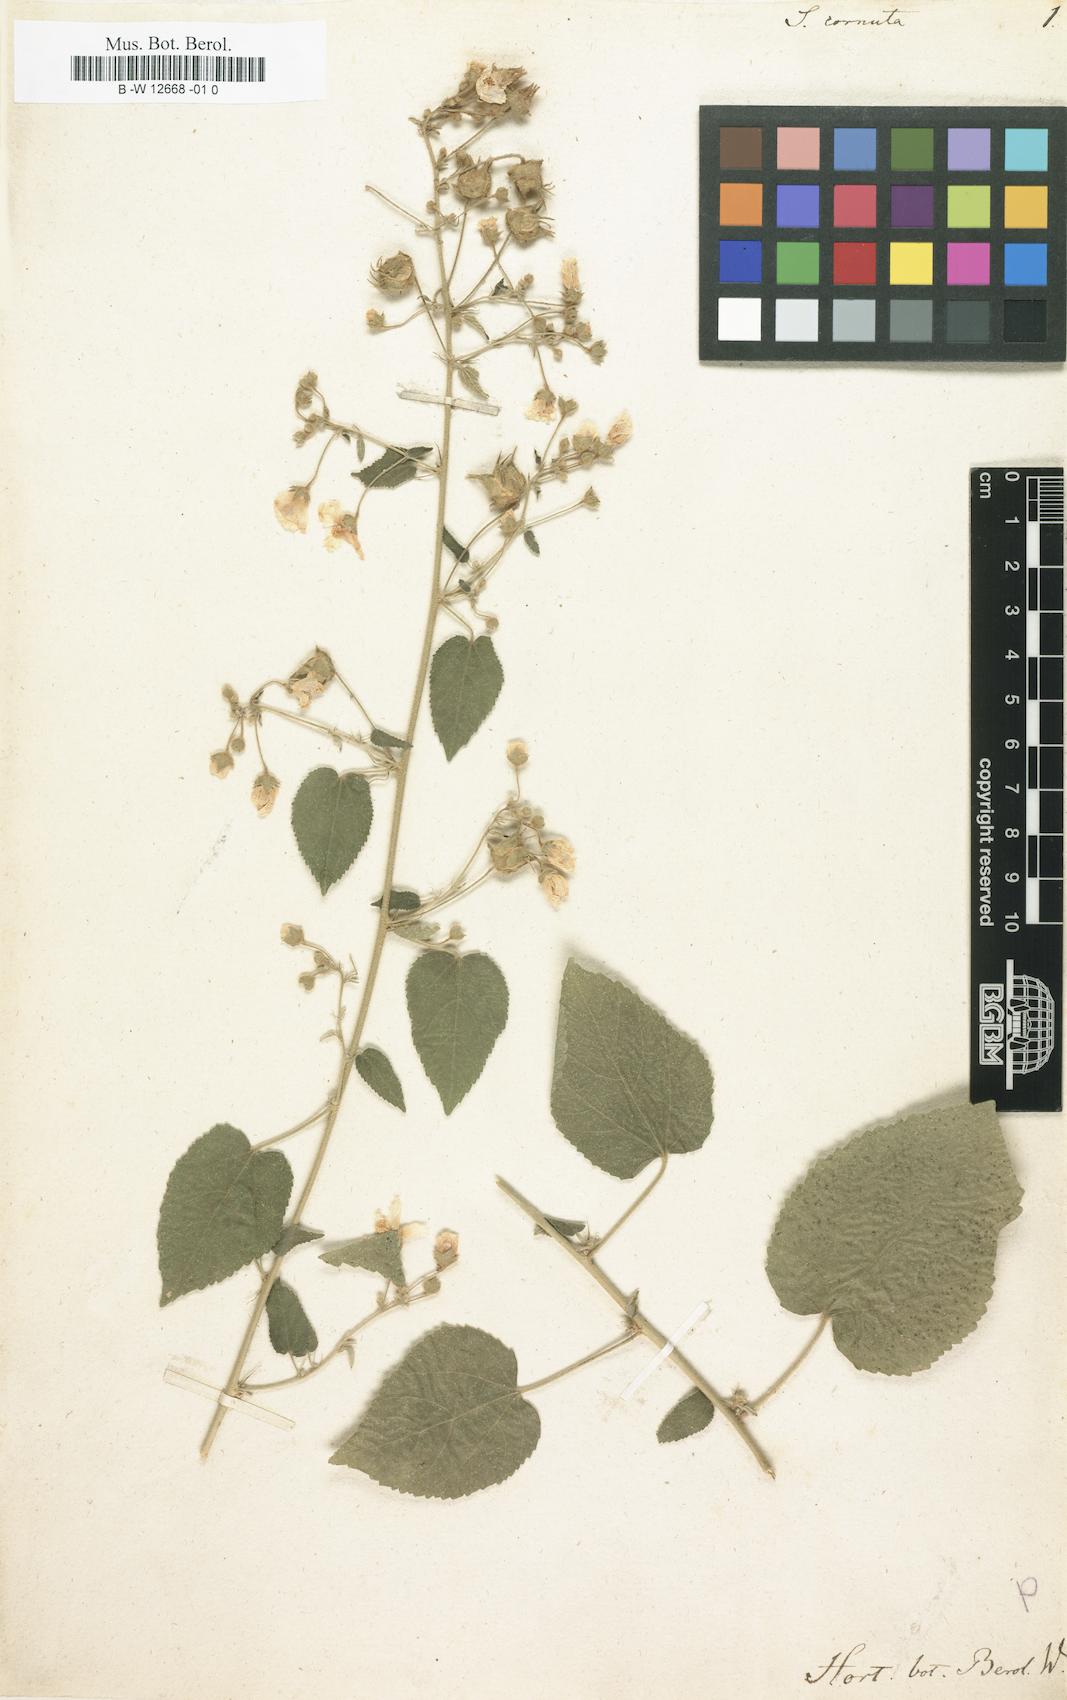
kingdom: Plantae
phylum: Tracheophyta
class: Magnoliopsida
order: Malvales
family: Malvaceae
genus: Sida
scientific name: Sida corrugata
